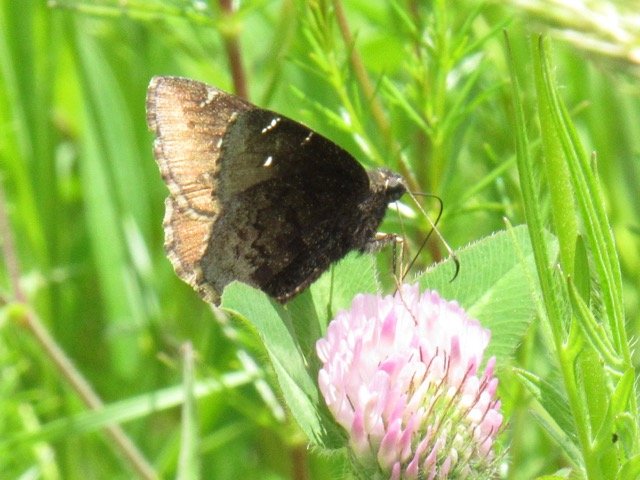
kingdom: Animalia
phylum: Arthropoda
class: Insecta
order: Lepidoptera
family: Hesperiidae
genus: Autochton
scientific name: Autochton
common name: Northern Cloudywing
